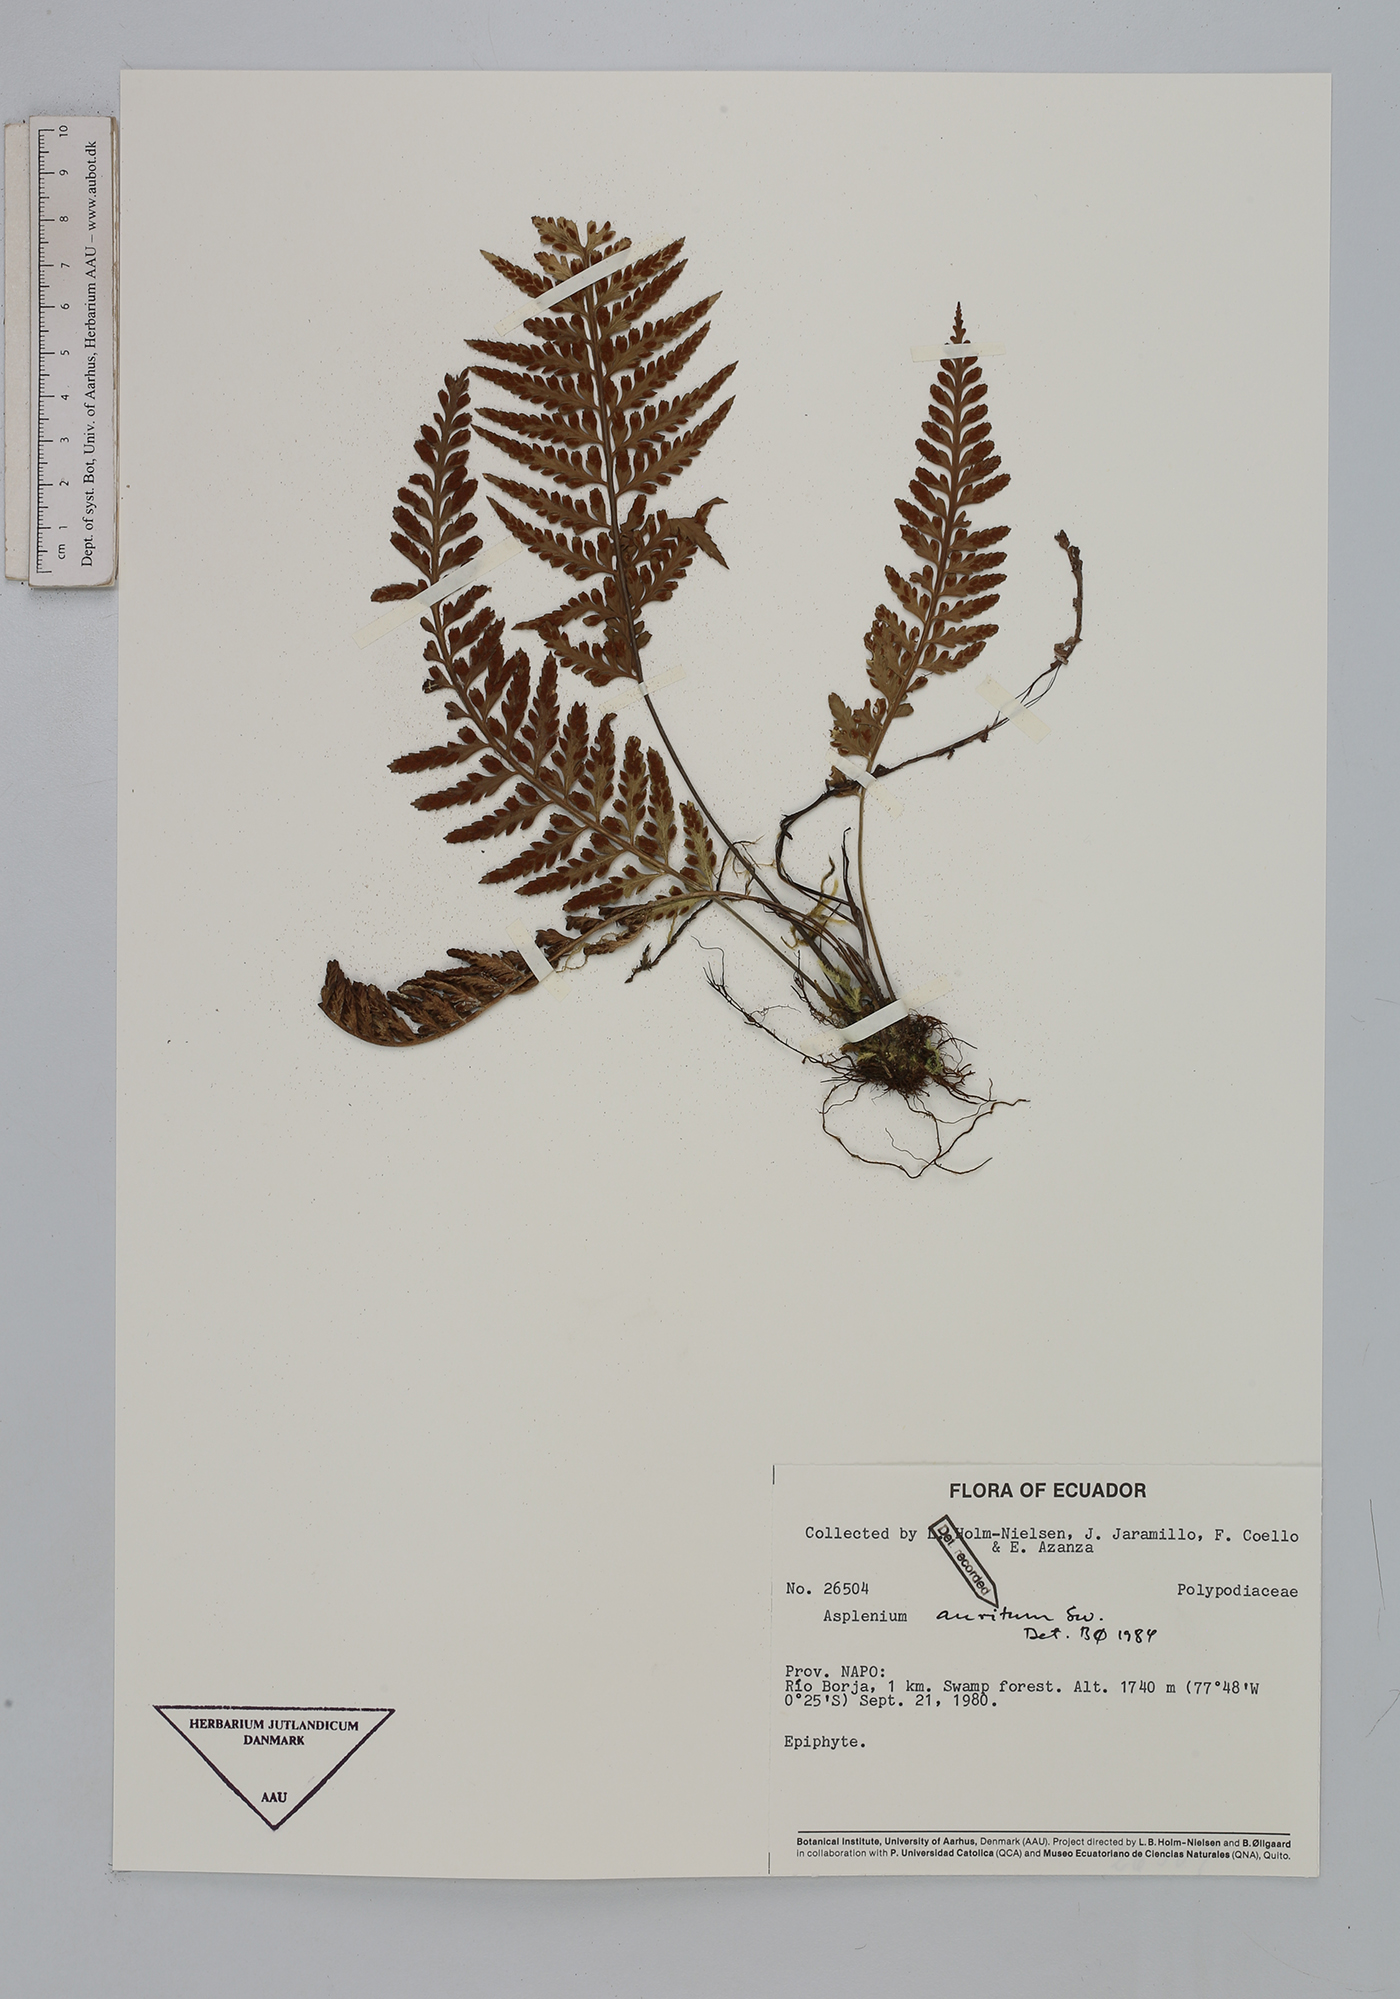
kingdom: Plantae
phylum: Tracheophyta
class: Polypodiopsida
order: Polypodiales
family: Aspleniaceae
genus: Asplenium
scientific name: Asplenium auritum
